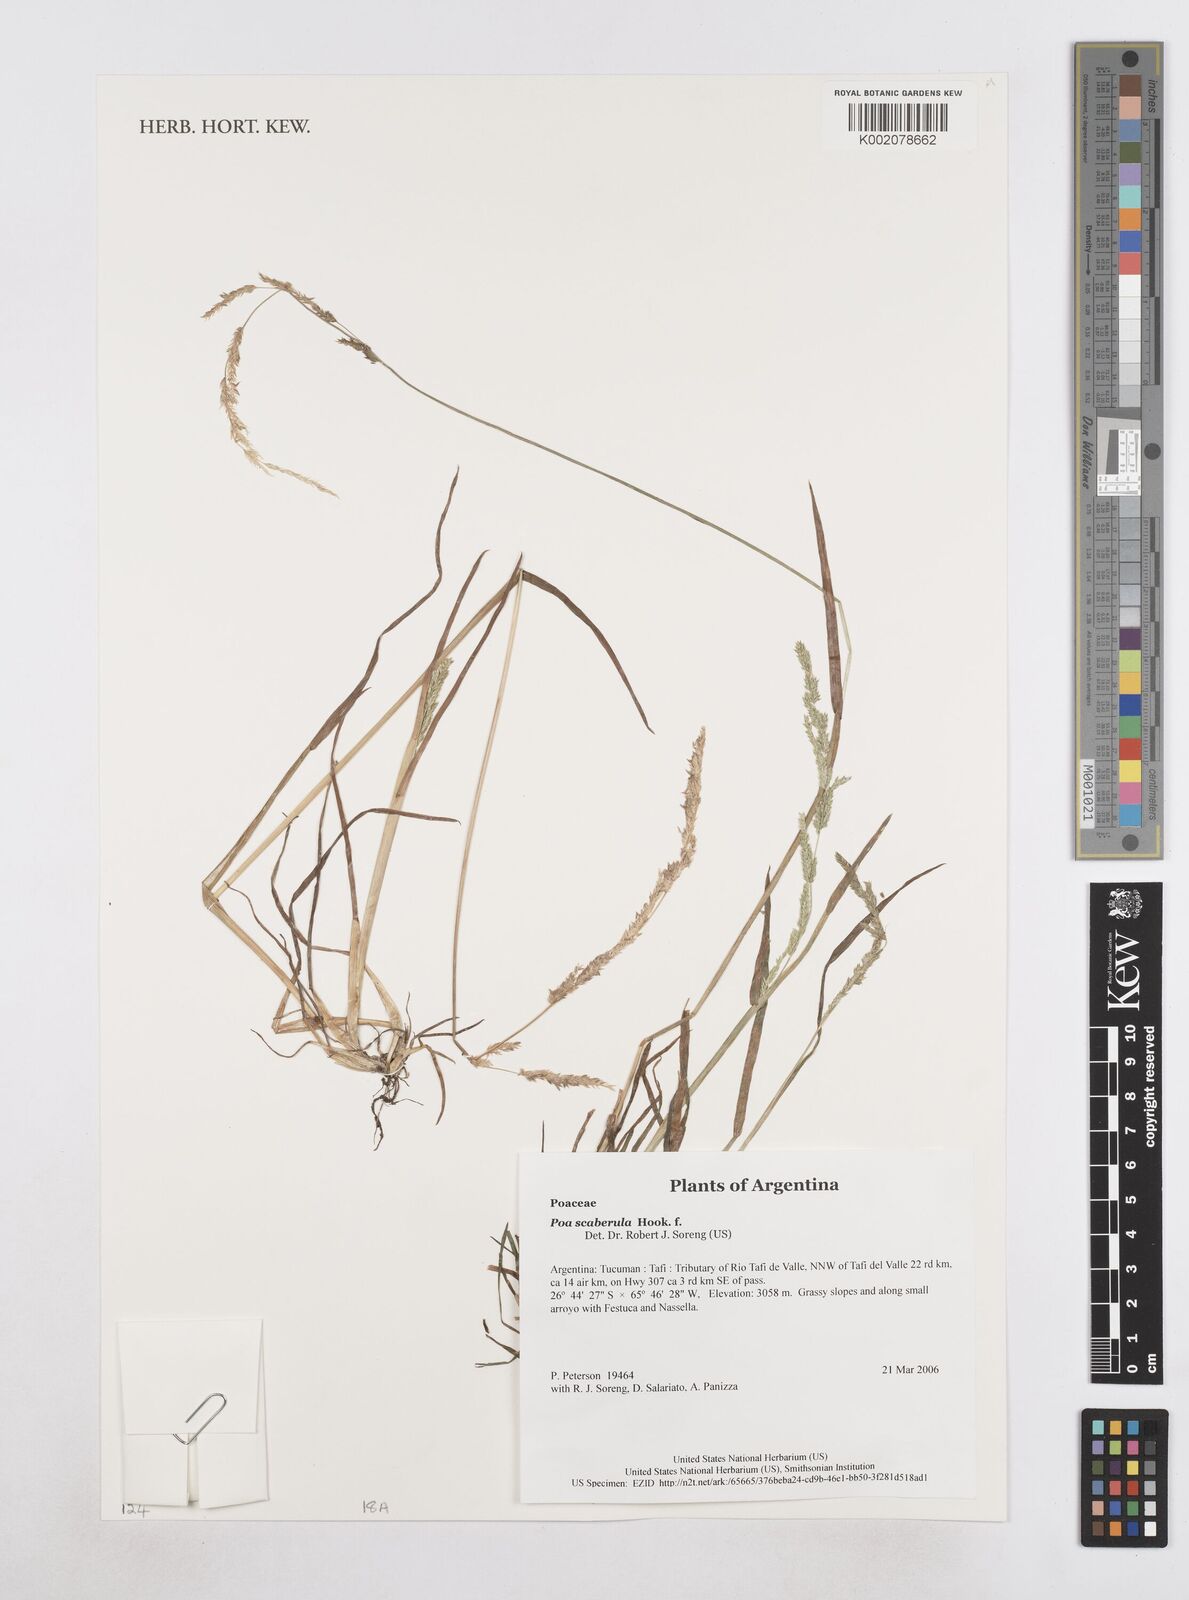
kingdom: Plantae
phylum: Tracheophyta
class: Liliopsida
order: Poales
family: Poaceae
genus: Poa
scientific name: Poa scaberula
